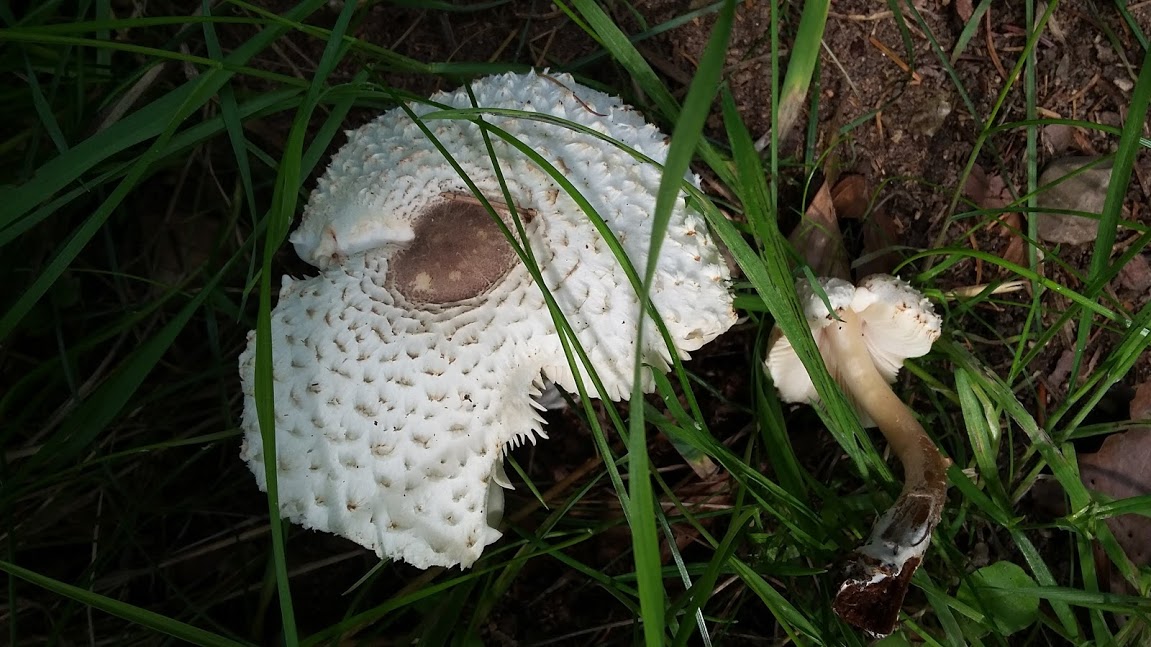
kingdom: Fungi
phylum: Basidiomycota
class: Agaricomycetes
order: Agaricales
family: Agaricaceae
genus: Leucoagaricus
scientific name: Leucoagaricus nympharum
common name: gran-silkehat
